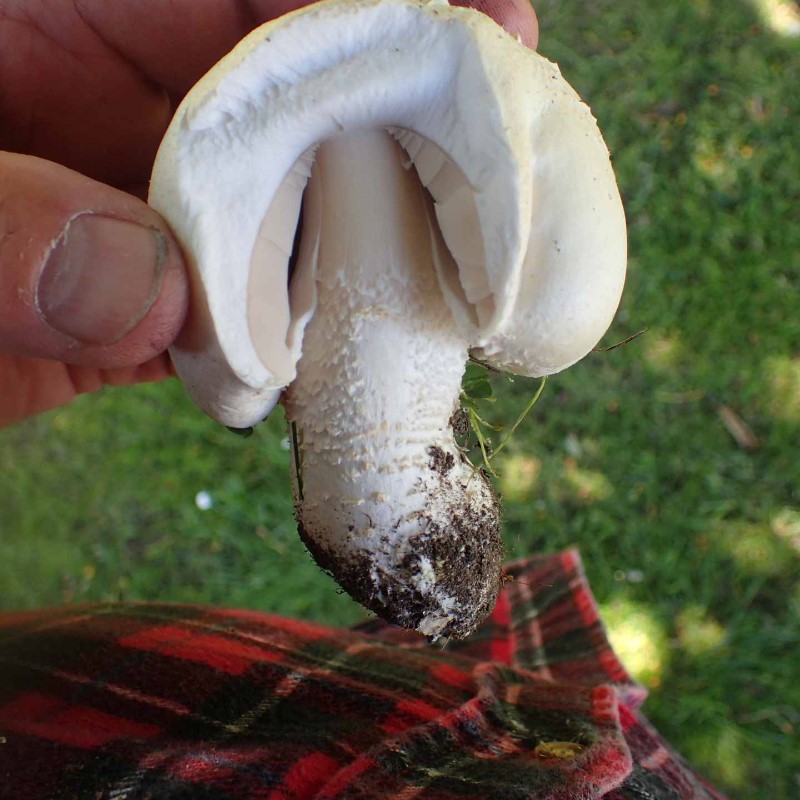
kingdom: Fungi
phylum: Basidiomycota
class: Agaricomycetes
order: Agaricales
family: Agaricaceae
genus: Agaricus
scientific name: Agaricus crocodilinus
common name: landsby-champignon
